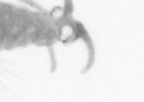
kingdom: Animalia
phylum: Arthropoda
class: Copepoda
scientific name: Copepoda
